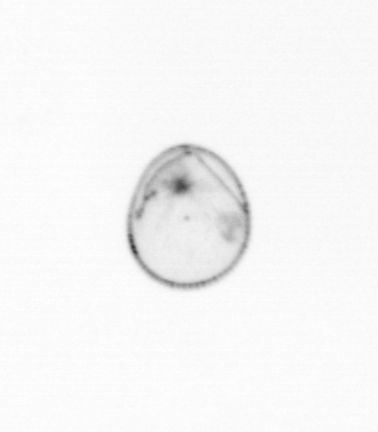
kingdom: Chromista
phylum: Myzozoa
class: Dinophyceae
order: Noctilucales
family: Noctilucaceae
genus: Noctiluca
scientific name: Noctiluca scintillans
